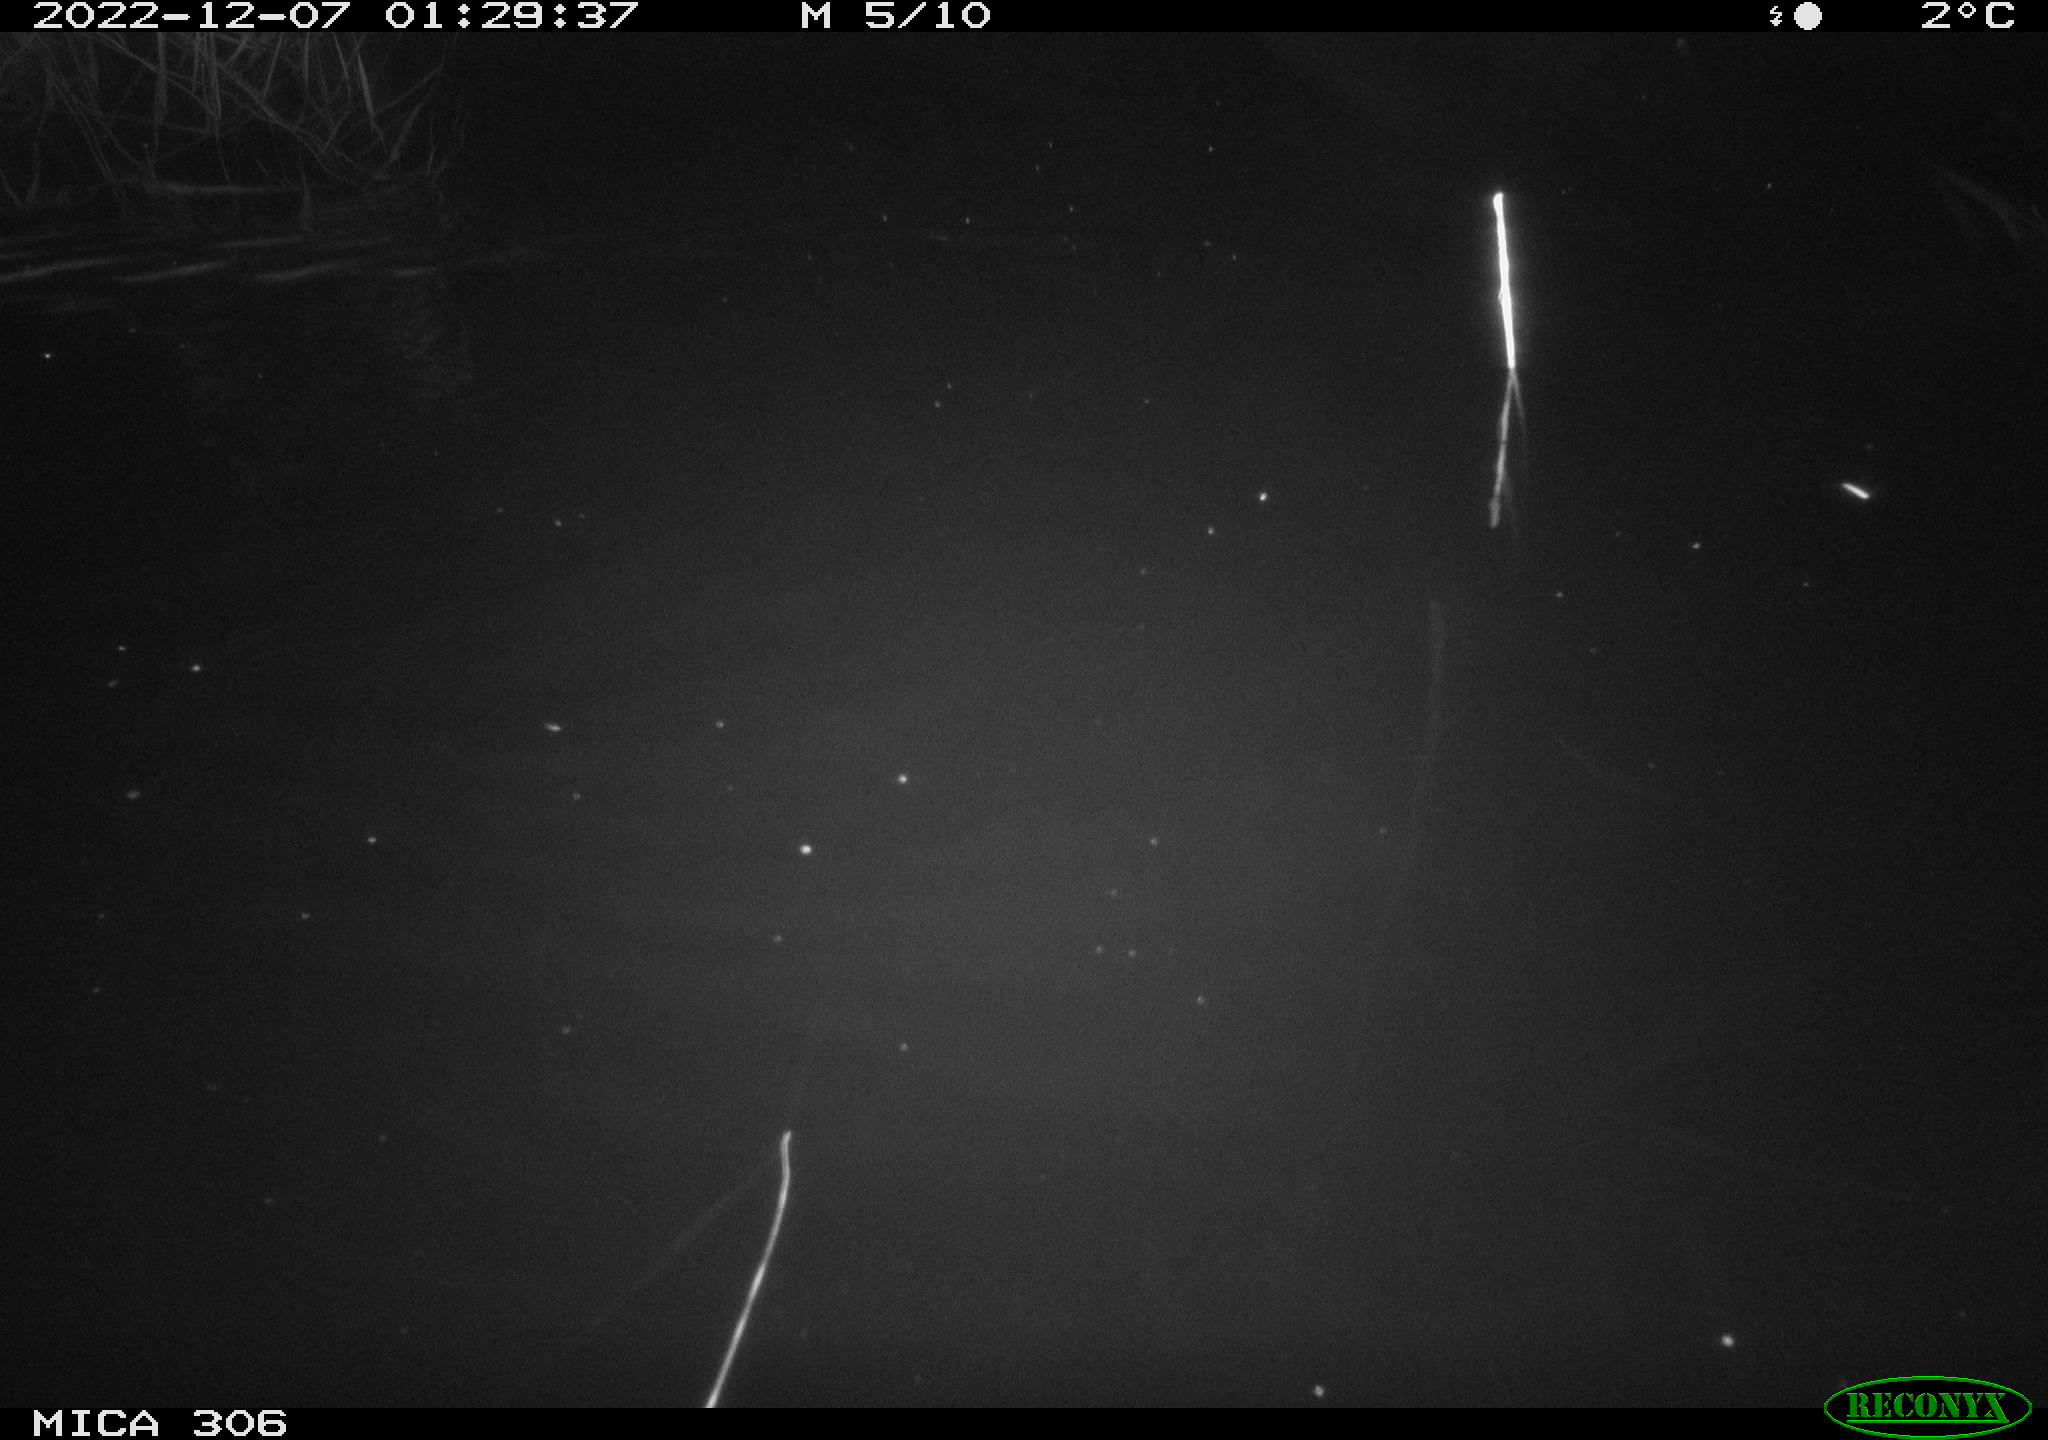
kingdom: Animalia
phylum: Chordata
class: Mammalia
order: Rodentia
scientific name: Rodentia
